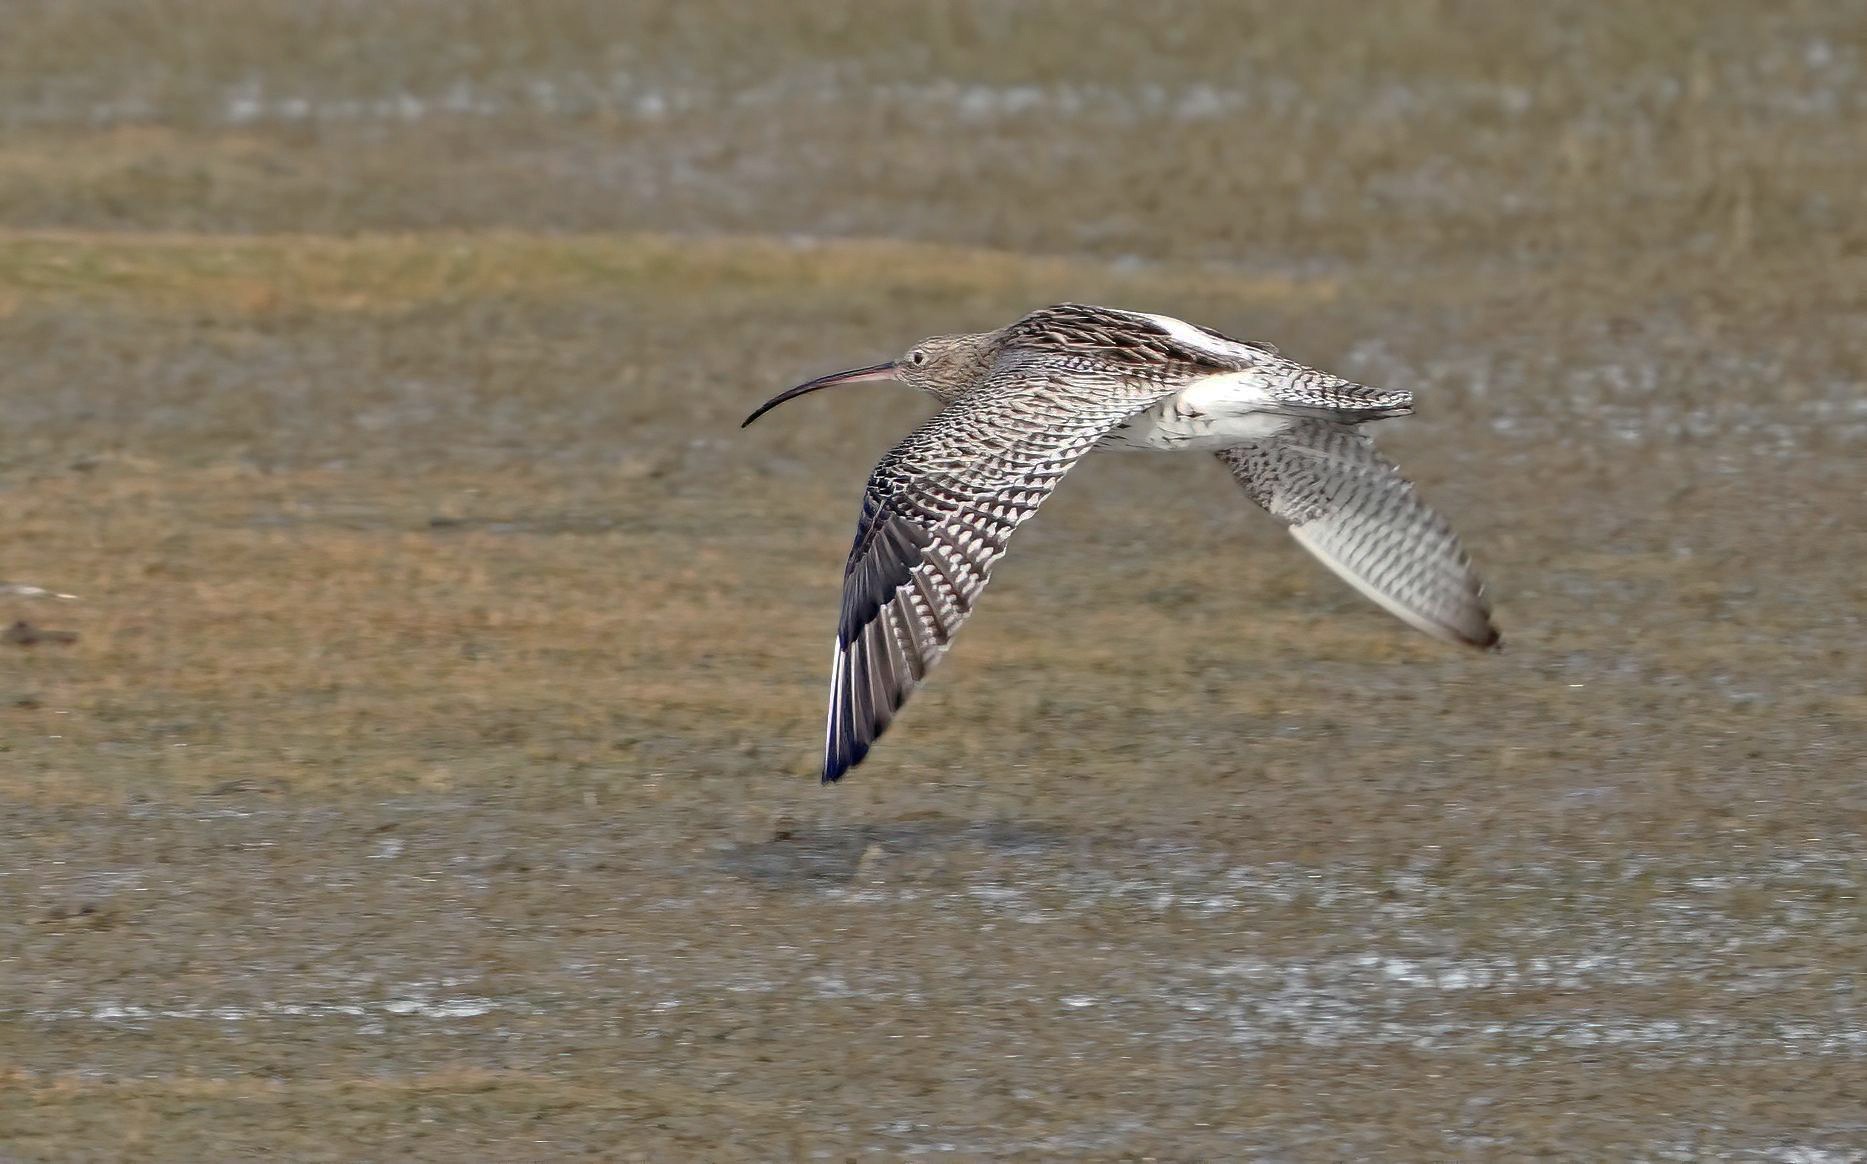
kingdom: Animalia
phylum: Chordata
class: Aves
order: Charadriiformes
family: Scolopacidae
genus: Numenius
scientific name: Numenius arquata
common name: Storspove
